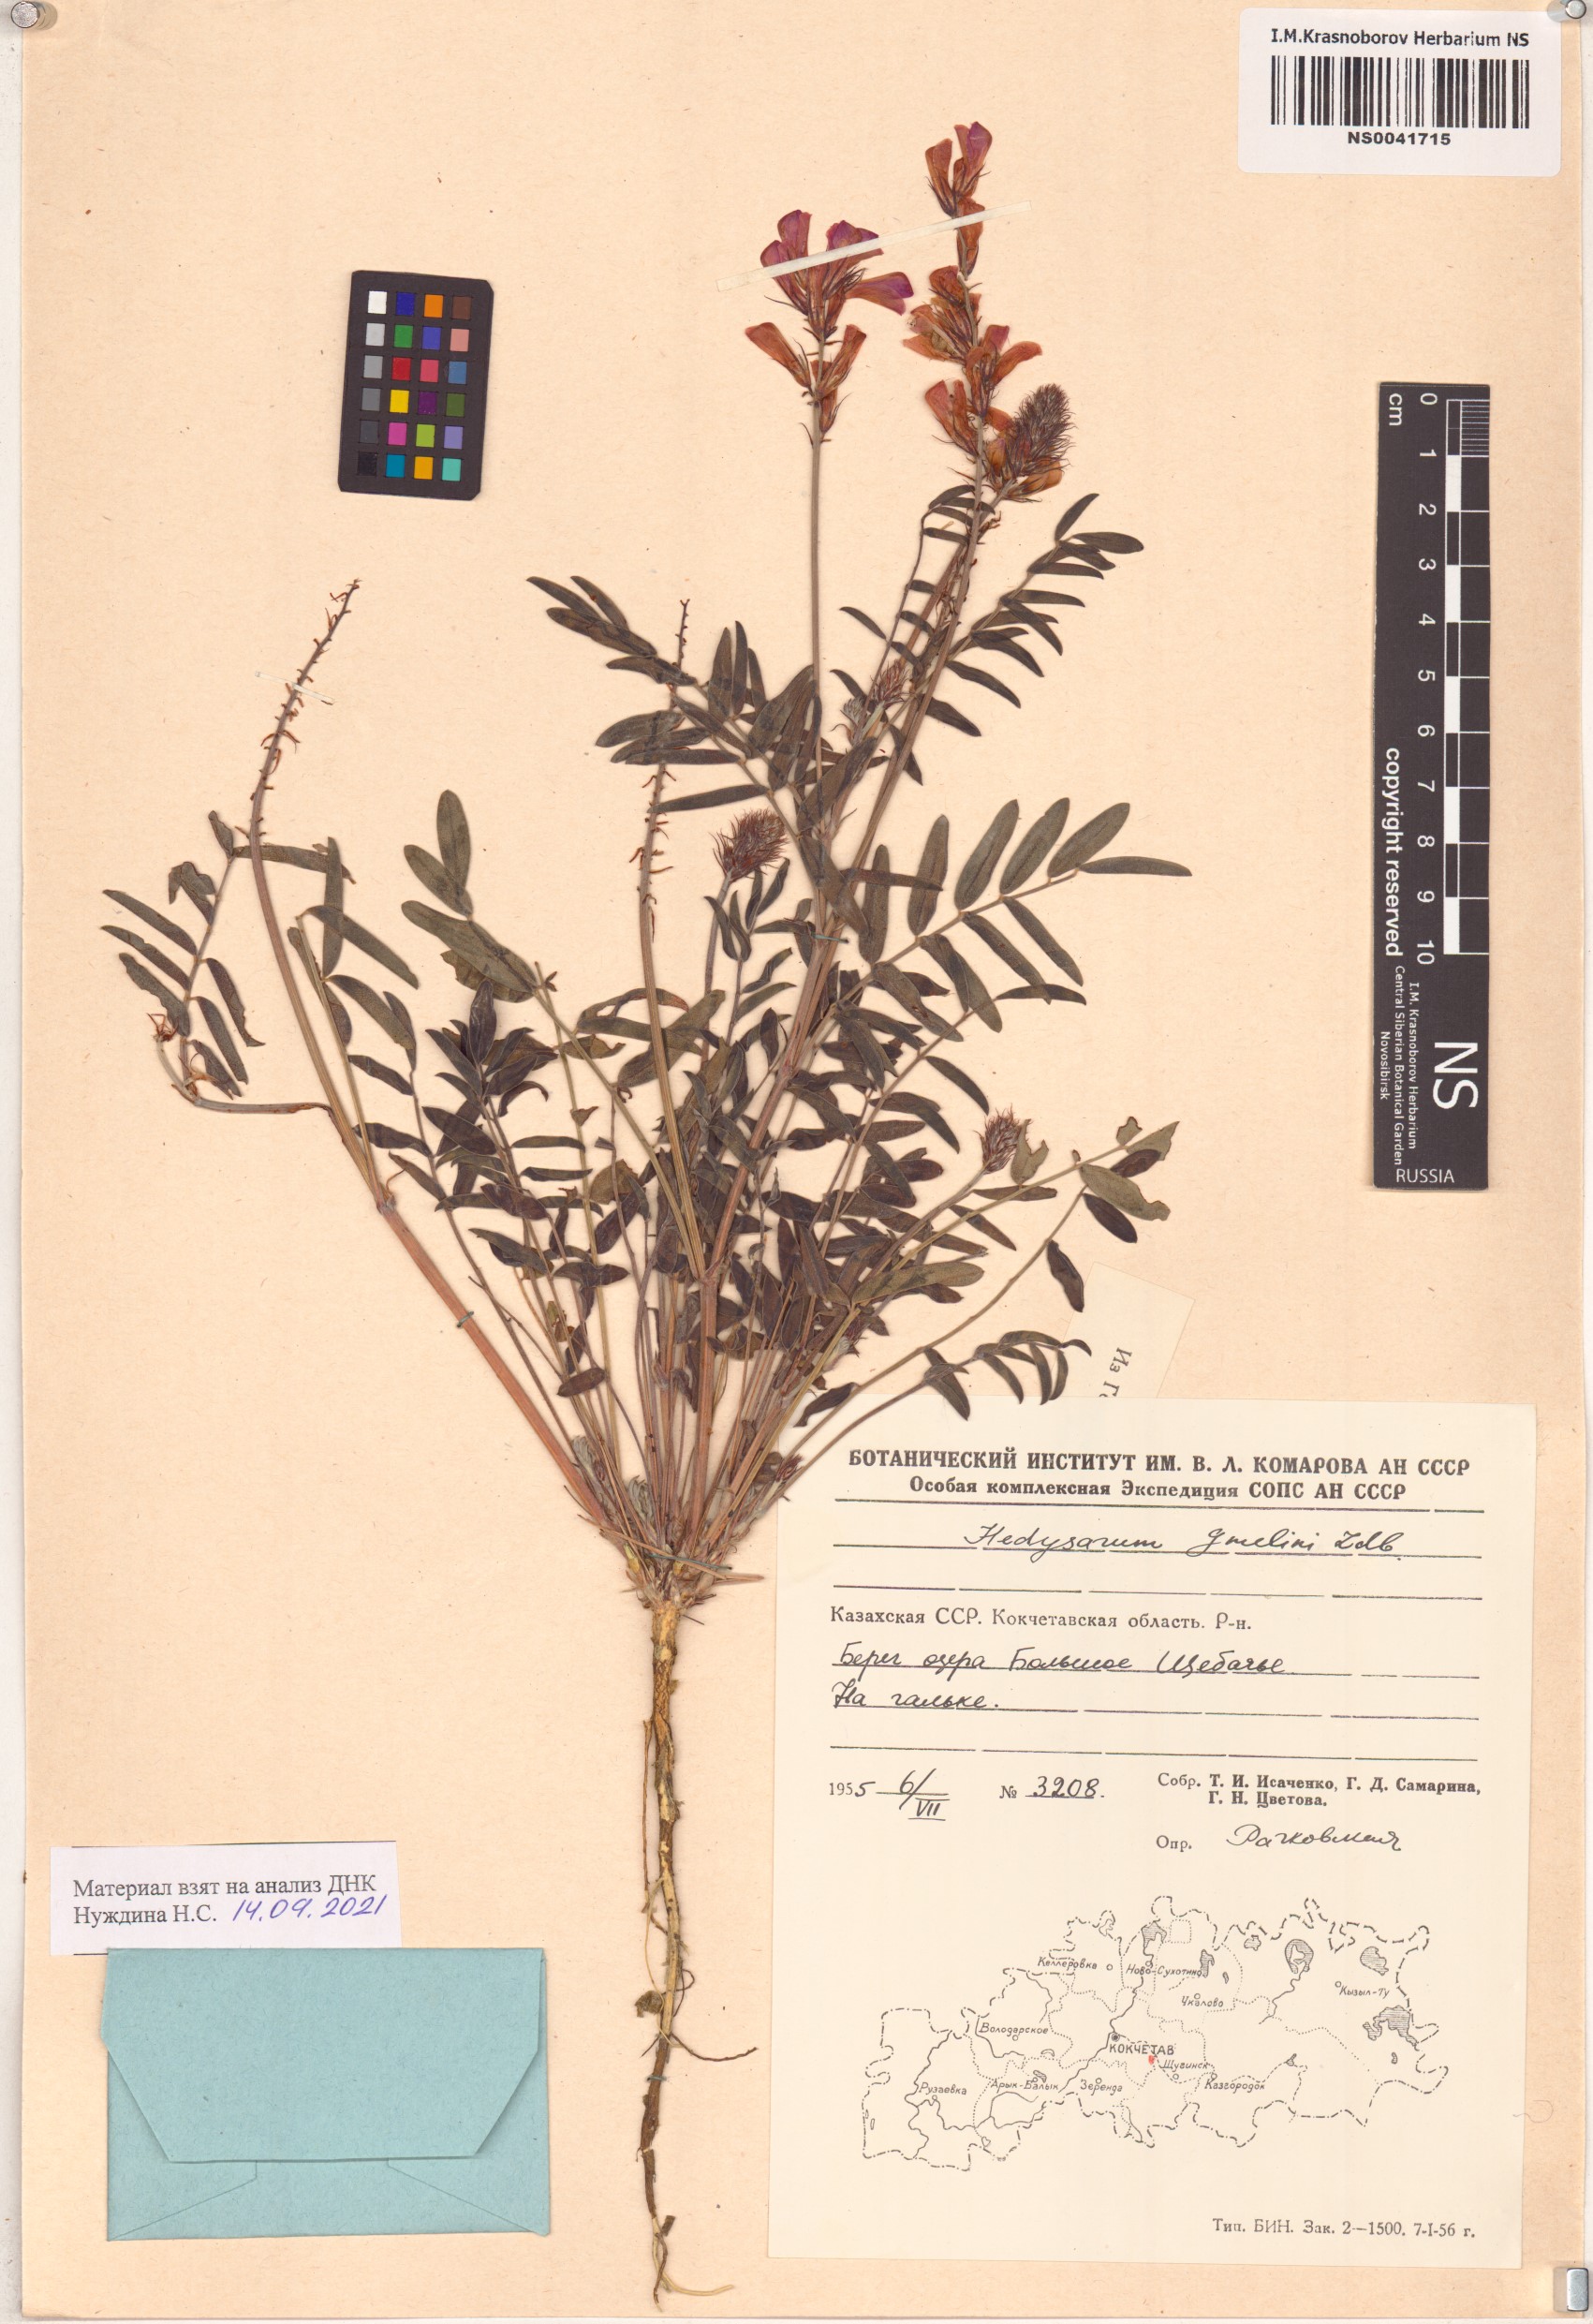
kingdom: Plantae
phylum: Tracheophyta
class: Magnoliopsida
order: Fabales
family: Fabaceae
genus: Hedysarum
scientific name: Hedysarum gmelinii
